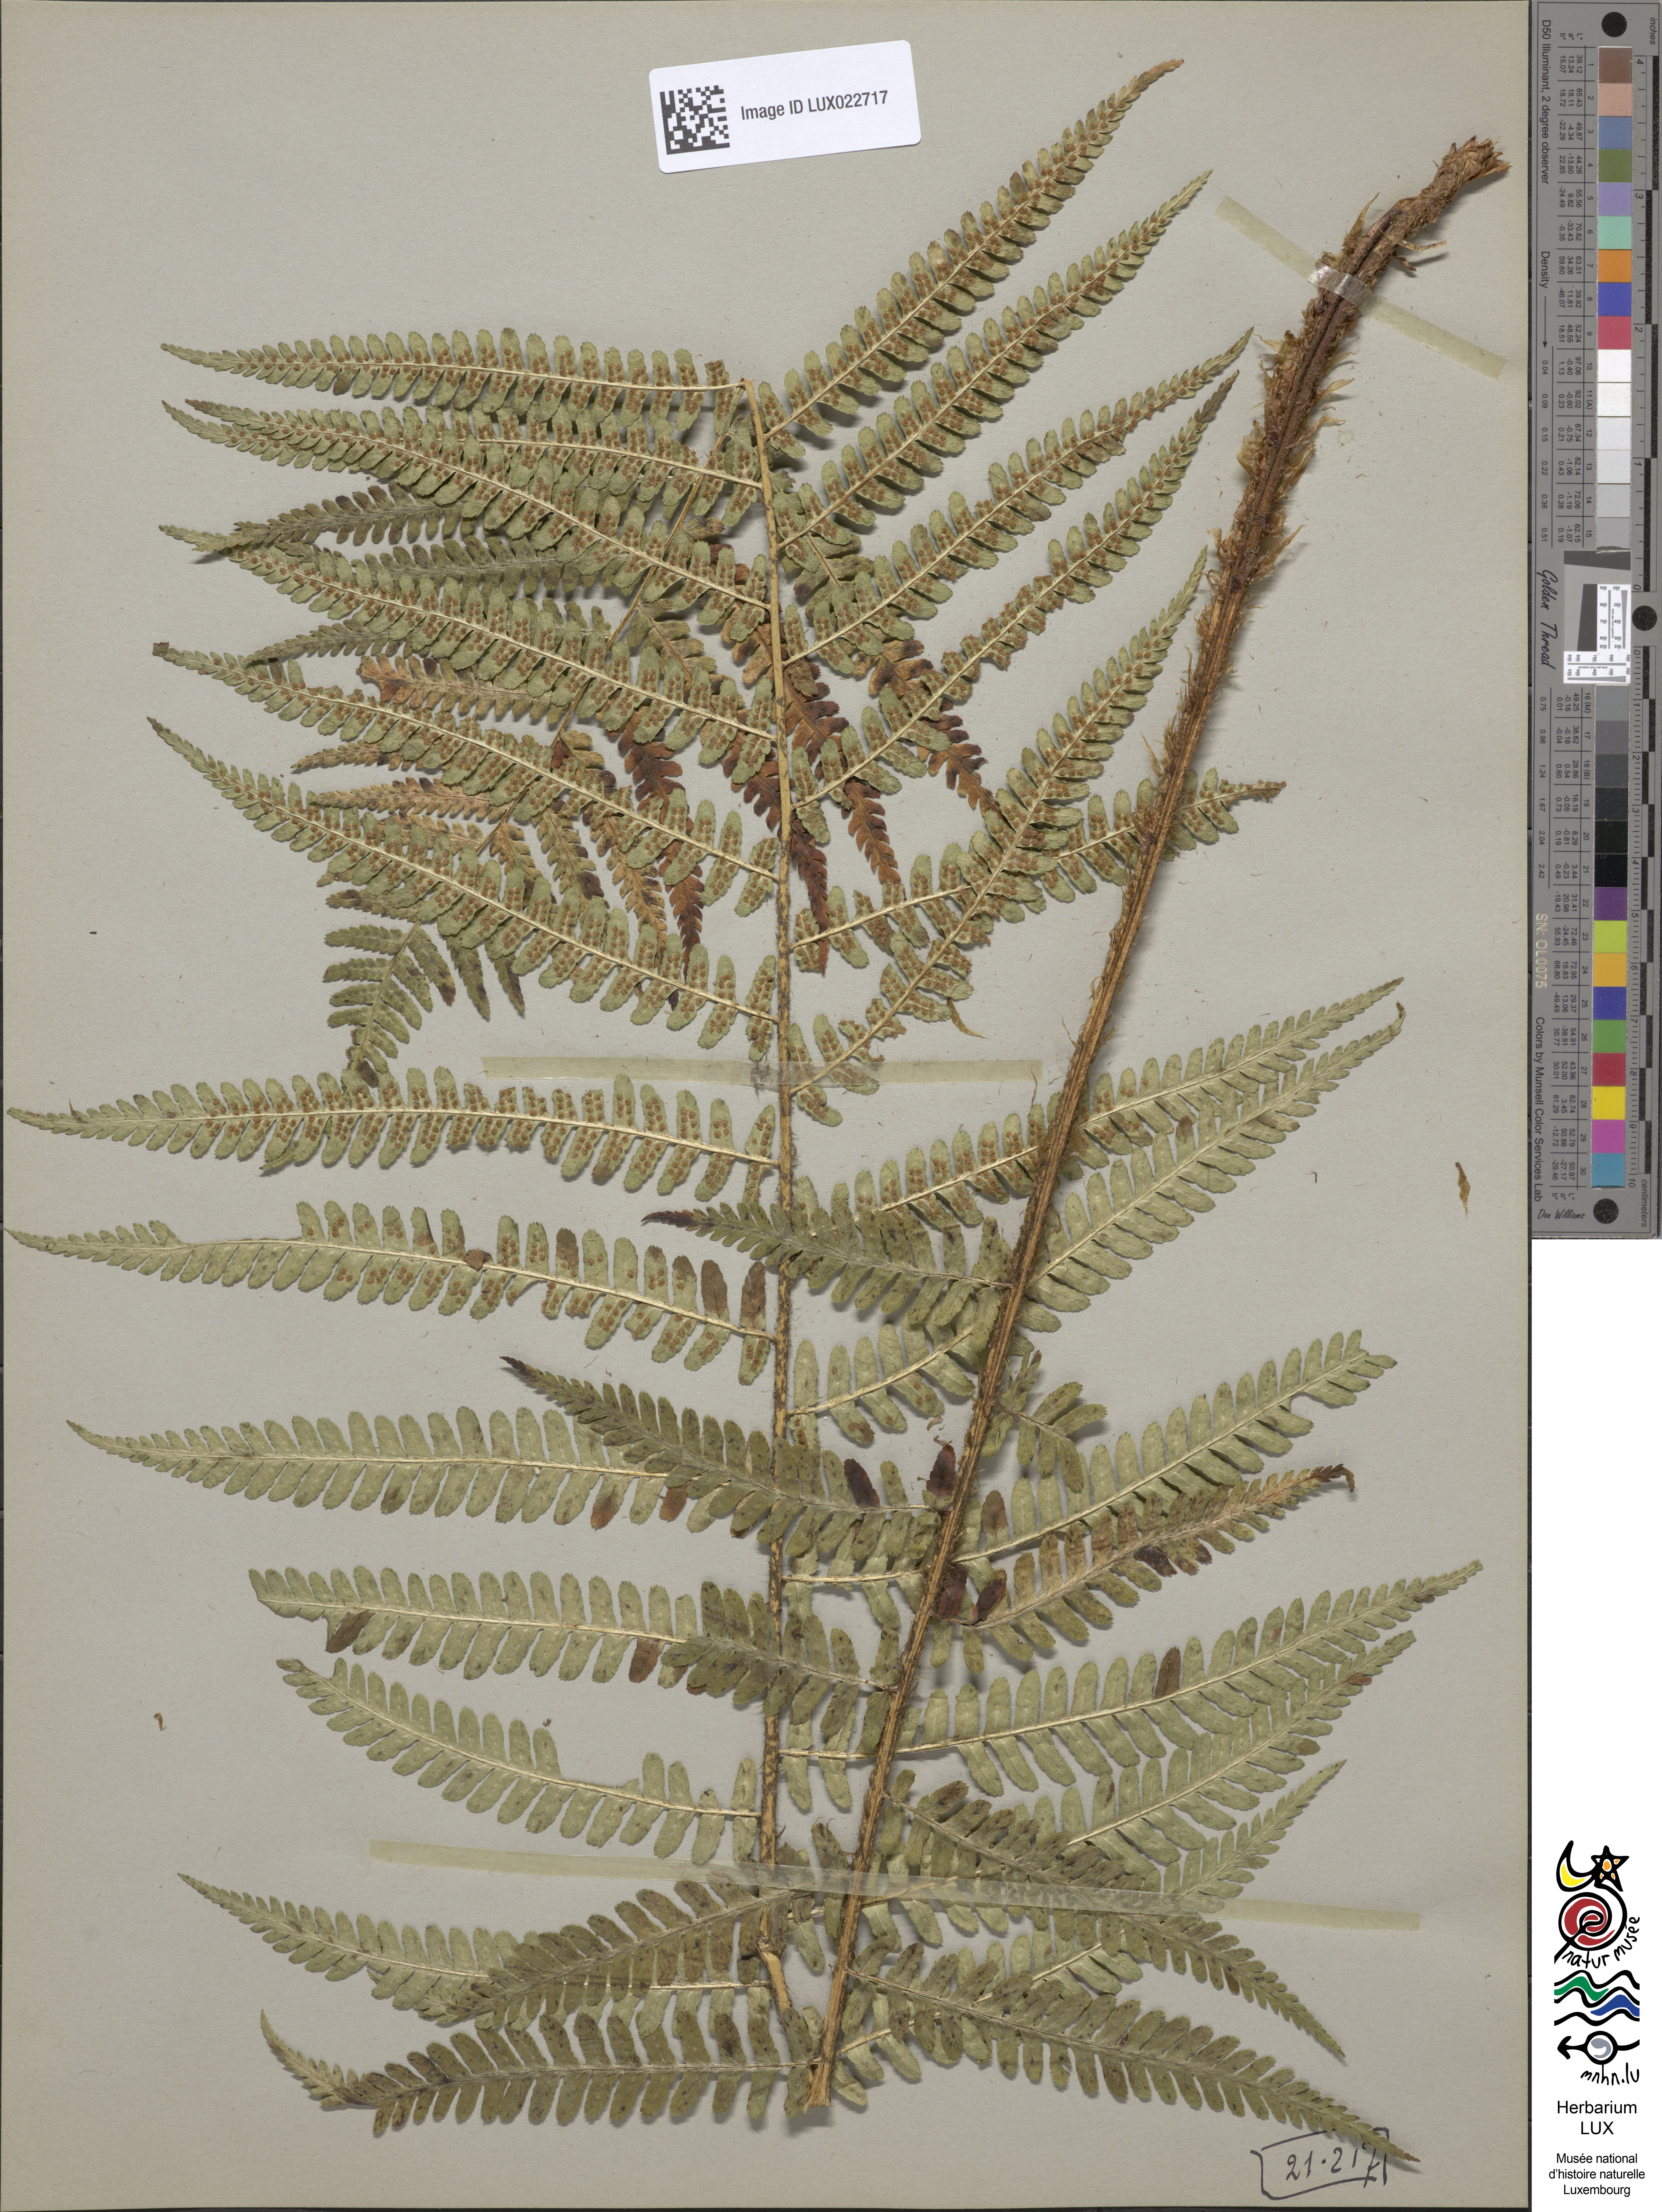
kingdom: Plantae
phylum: Tracheophyta
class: Polypodiopsida
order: Polypodiales
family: Dryopteridaceae
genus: Dryopteris
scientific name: Dryopteris filix-mas
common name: Male fern
